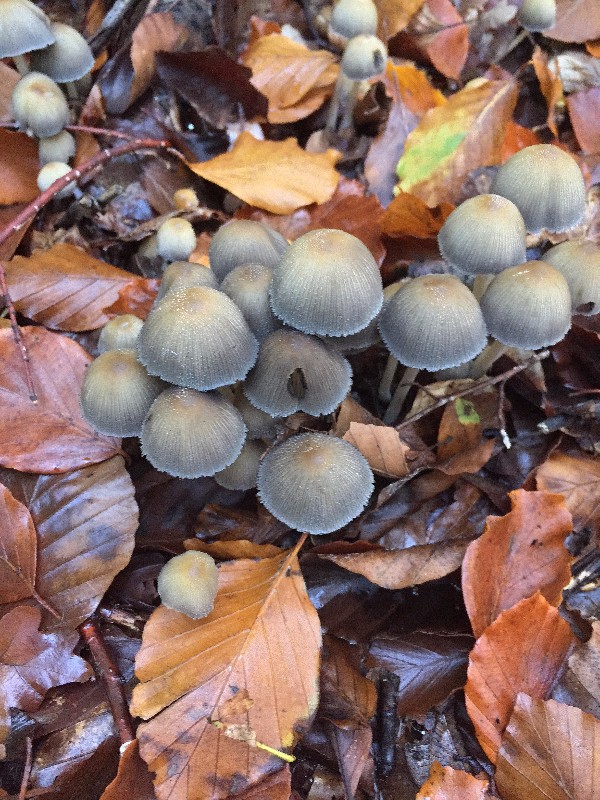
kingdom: Fungi
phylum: Basidiomycota
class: Agaricomycetes
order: Agaricales
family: Psathyrellaceae
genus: Coprinellus
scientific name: Coprinellus micaceus
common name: glimmer-blækhat
